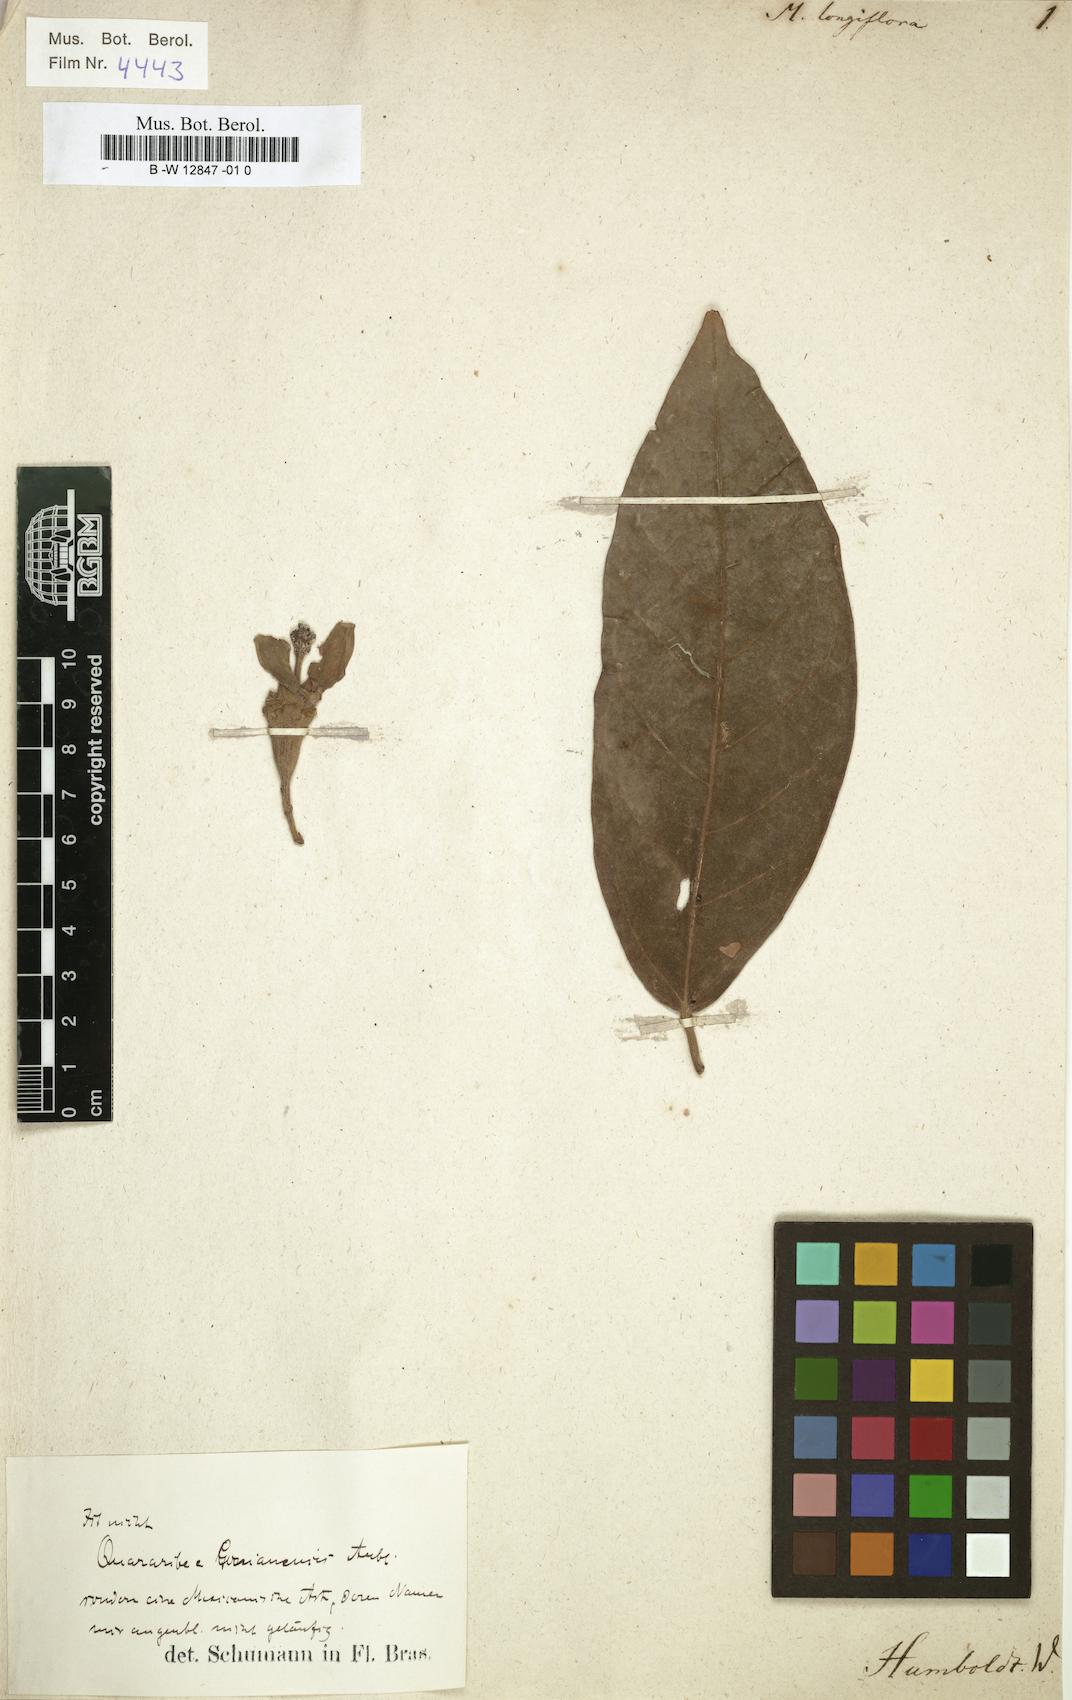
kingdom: Plantae
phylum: Tracheophyta
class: Magnoliopsida
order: Malvales
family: Malvaceae
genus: Quararibea
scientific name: Quararibea guianensis
